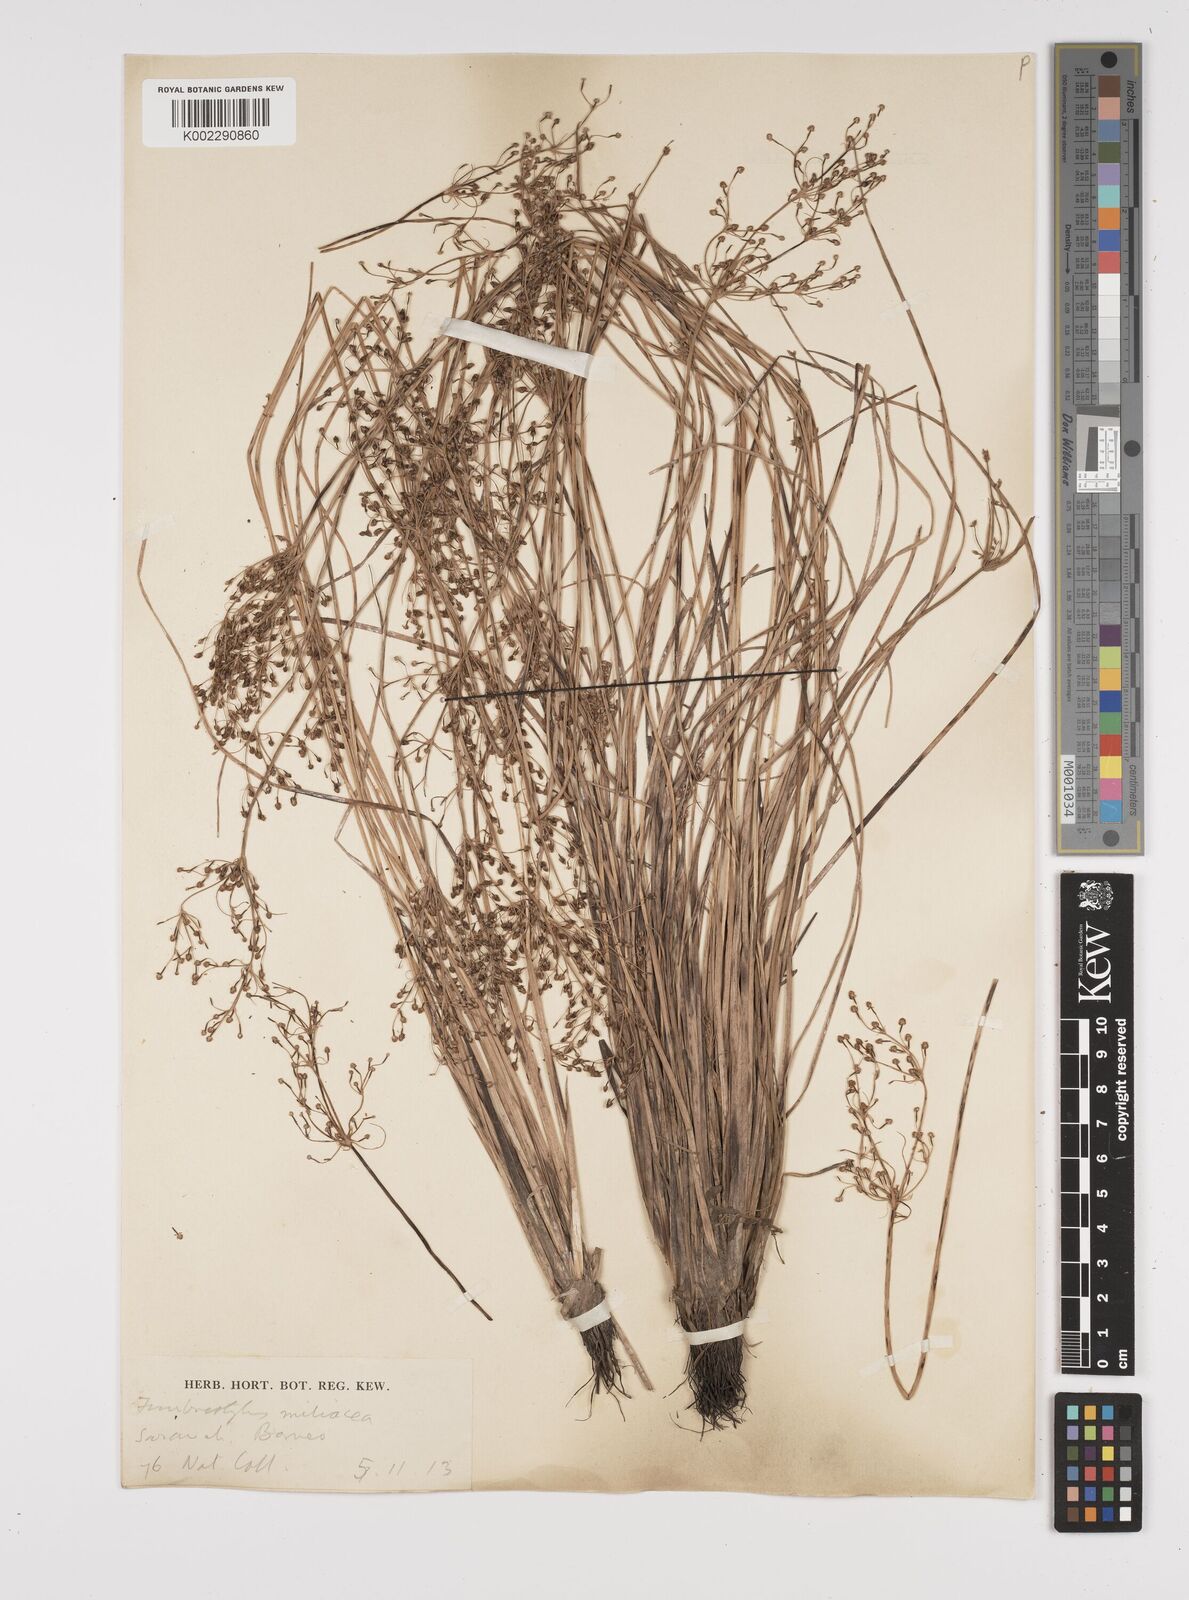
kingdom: Plantae
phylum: Tracheophyta
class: Liliopsida
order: Poales
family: Cyperaceae
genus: Fimbristylis
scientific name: Fimbristylis littoralis
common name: Fimbry
